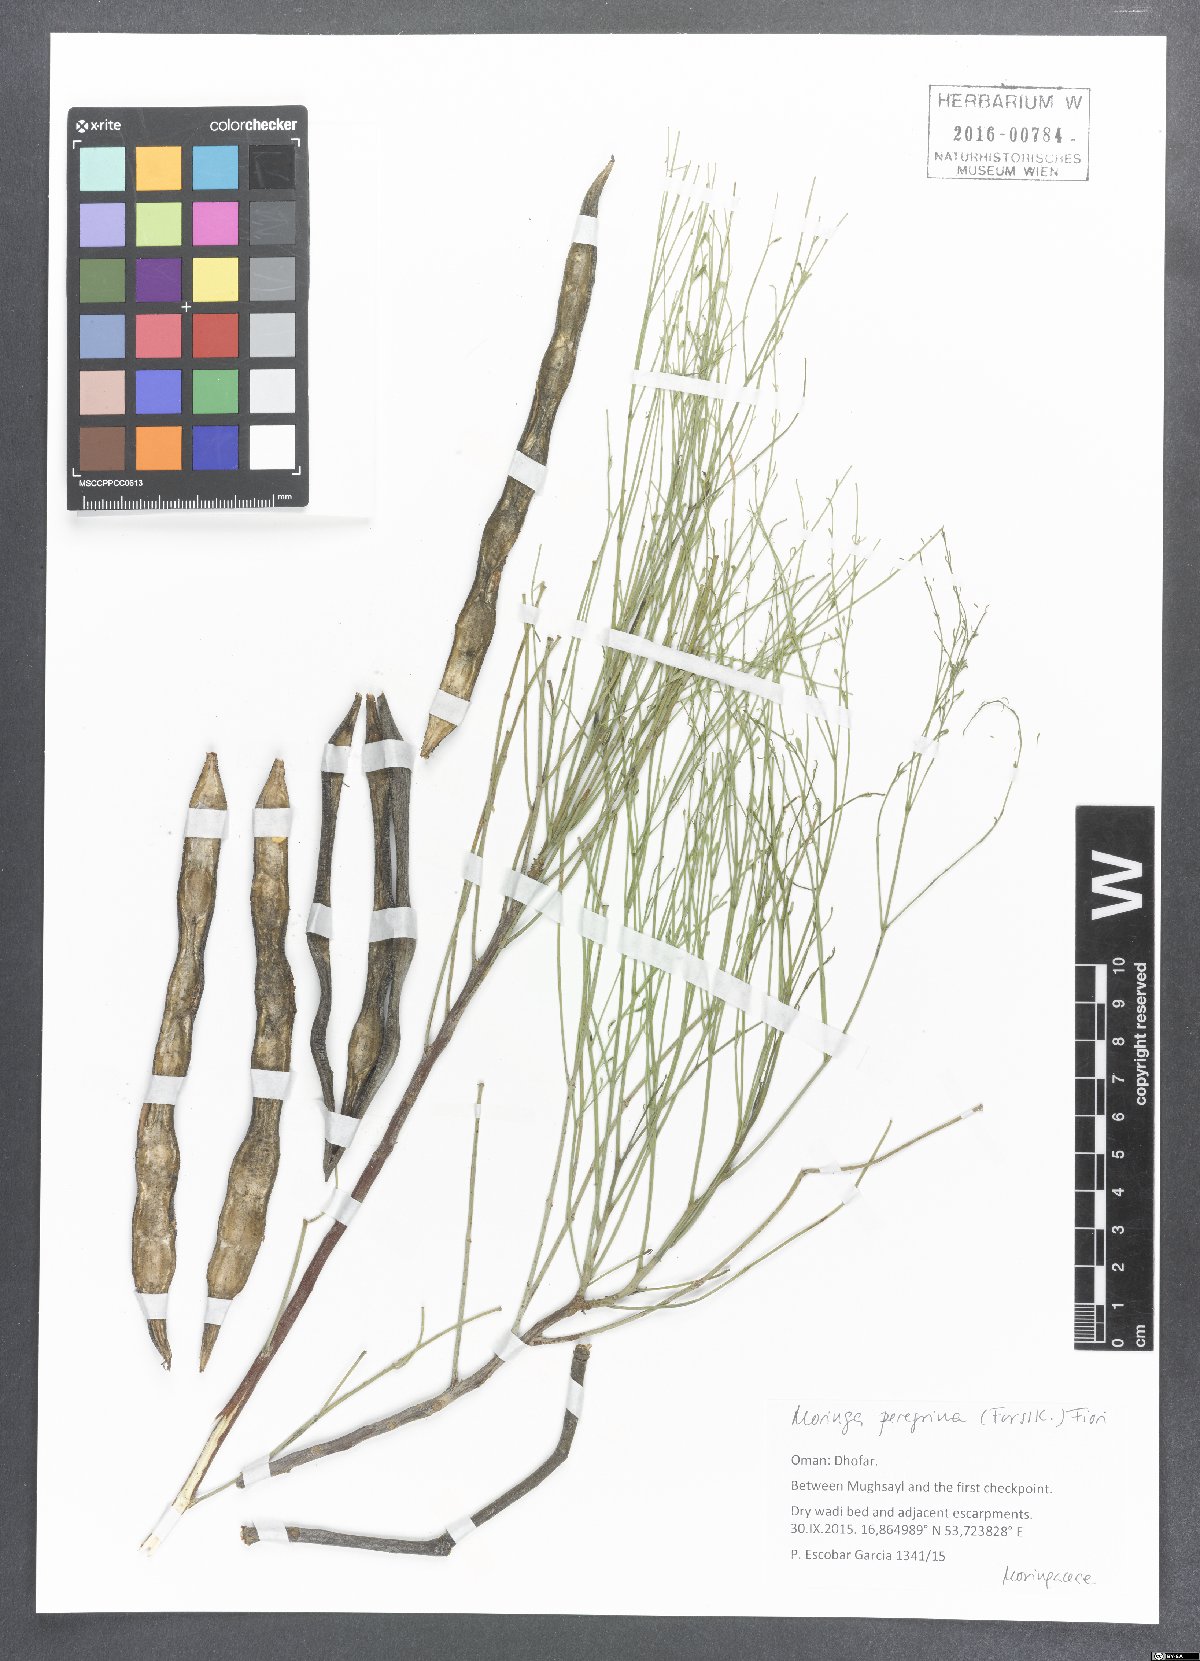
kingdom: Plantae
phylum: Tracheophyta
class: Magnoliopsida
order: Brassicales
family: Moringaceae
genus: Moringa
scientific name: Moringa peregrina
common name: Wild drumstick tree
